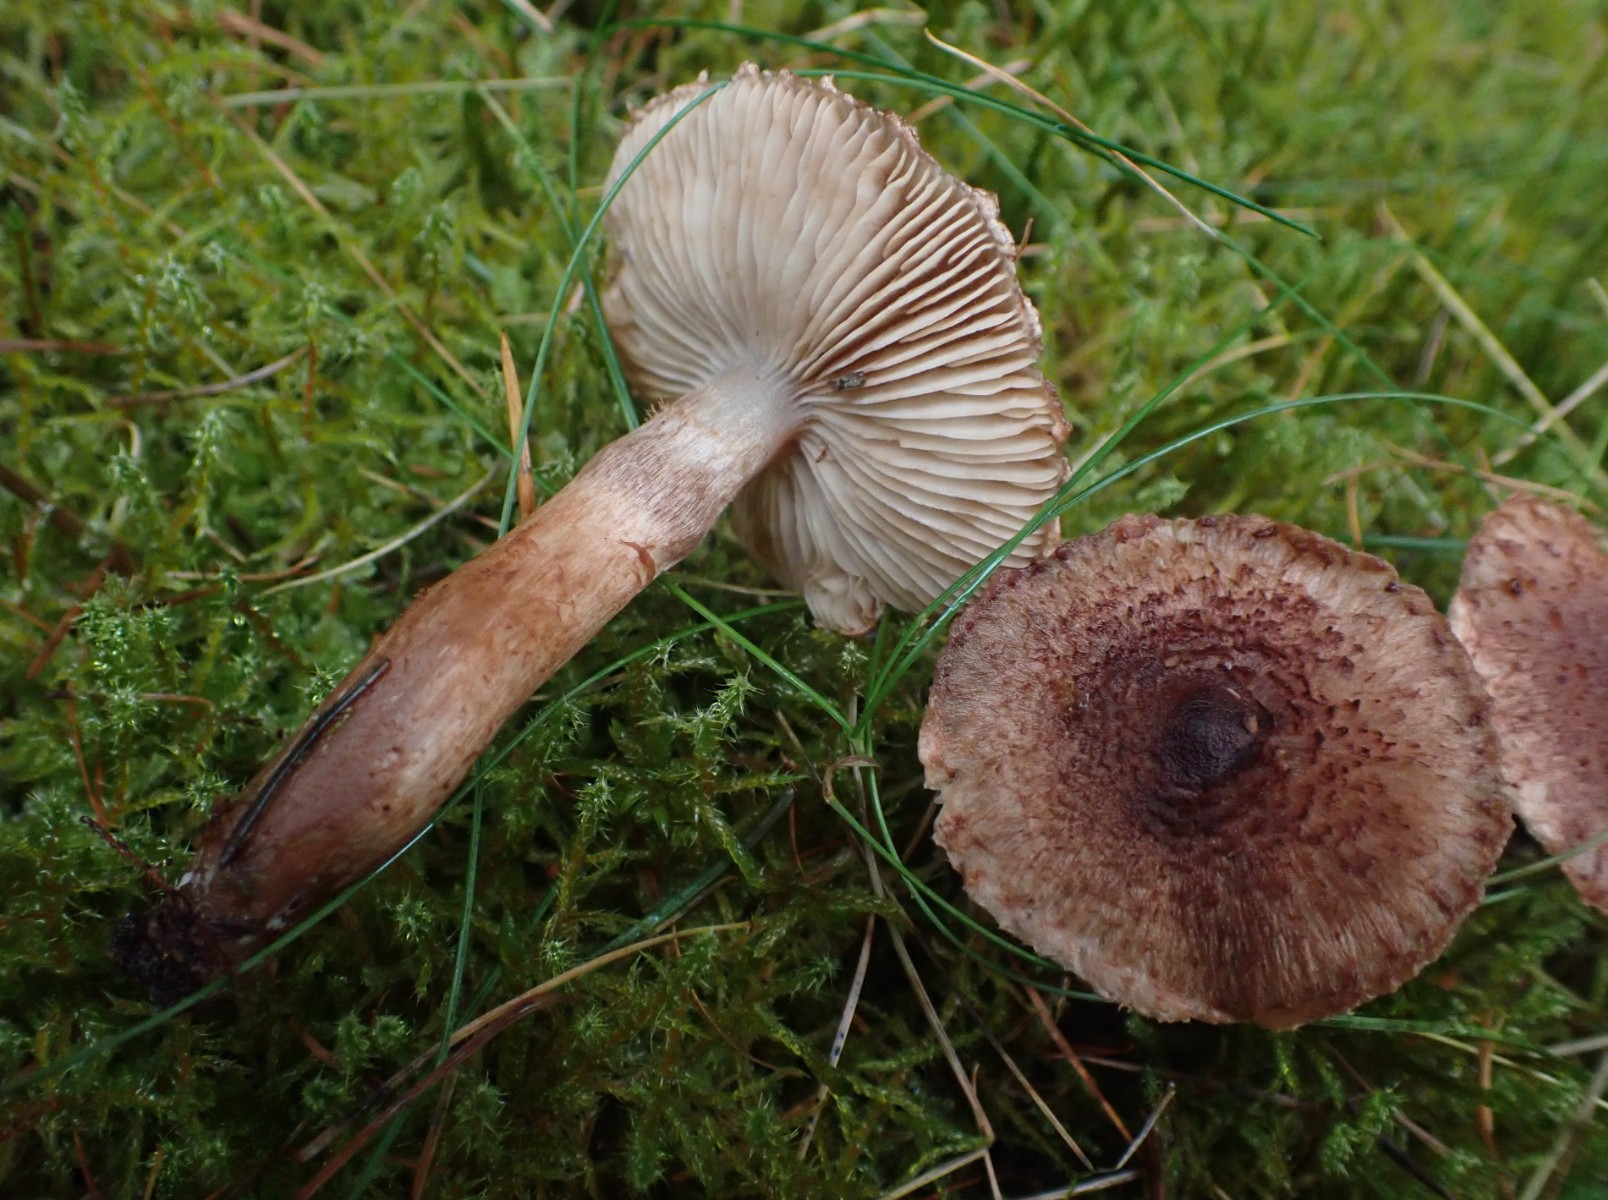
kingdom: Fungi
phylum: Basidiomycota
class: Agaricomycetes
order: Agaricales
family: Tricholomataceae
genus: Tricholoma
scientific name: Tricholoma vaccinum
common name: ko-ridderhat
